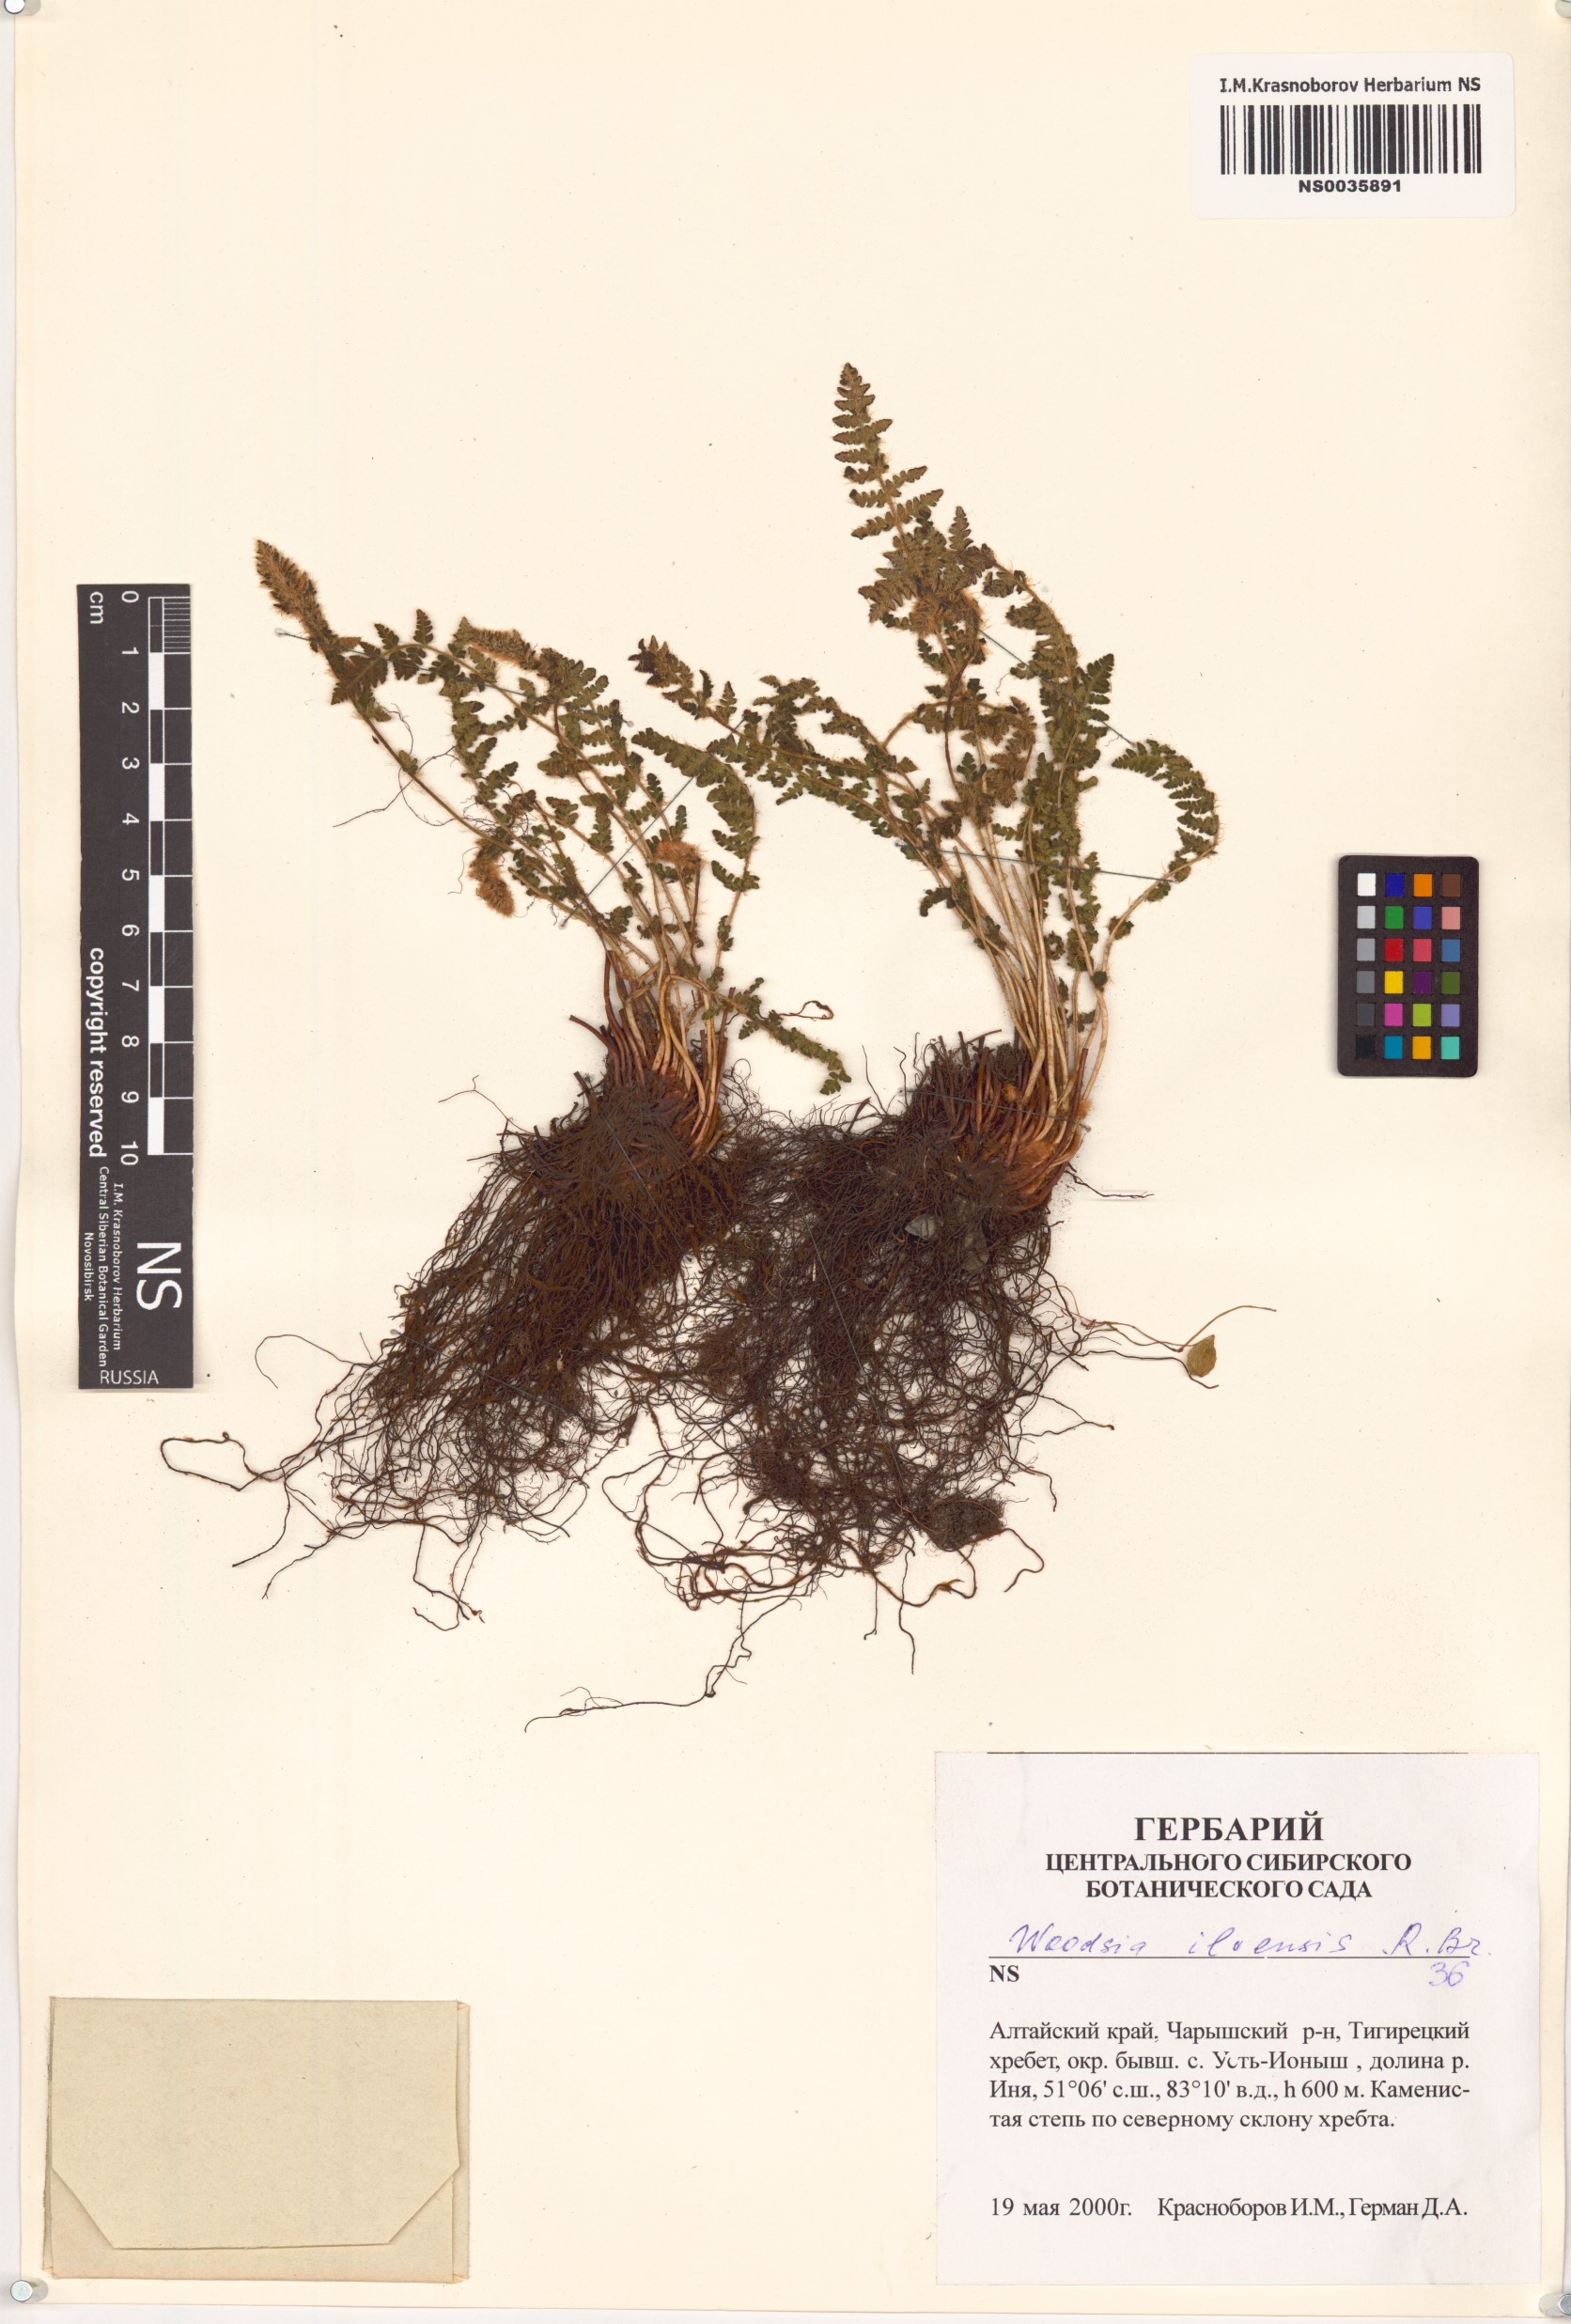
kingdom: Plantae
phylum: Tracheophyta
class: Polypodiopsida
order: Polypodiales
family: Woodsiaceae
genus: Woodsia
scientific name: Woodsia ilvensis
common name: Fragrant woodsia
